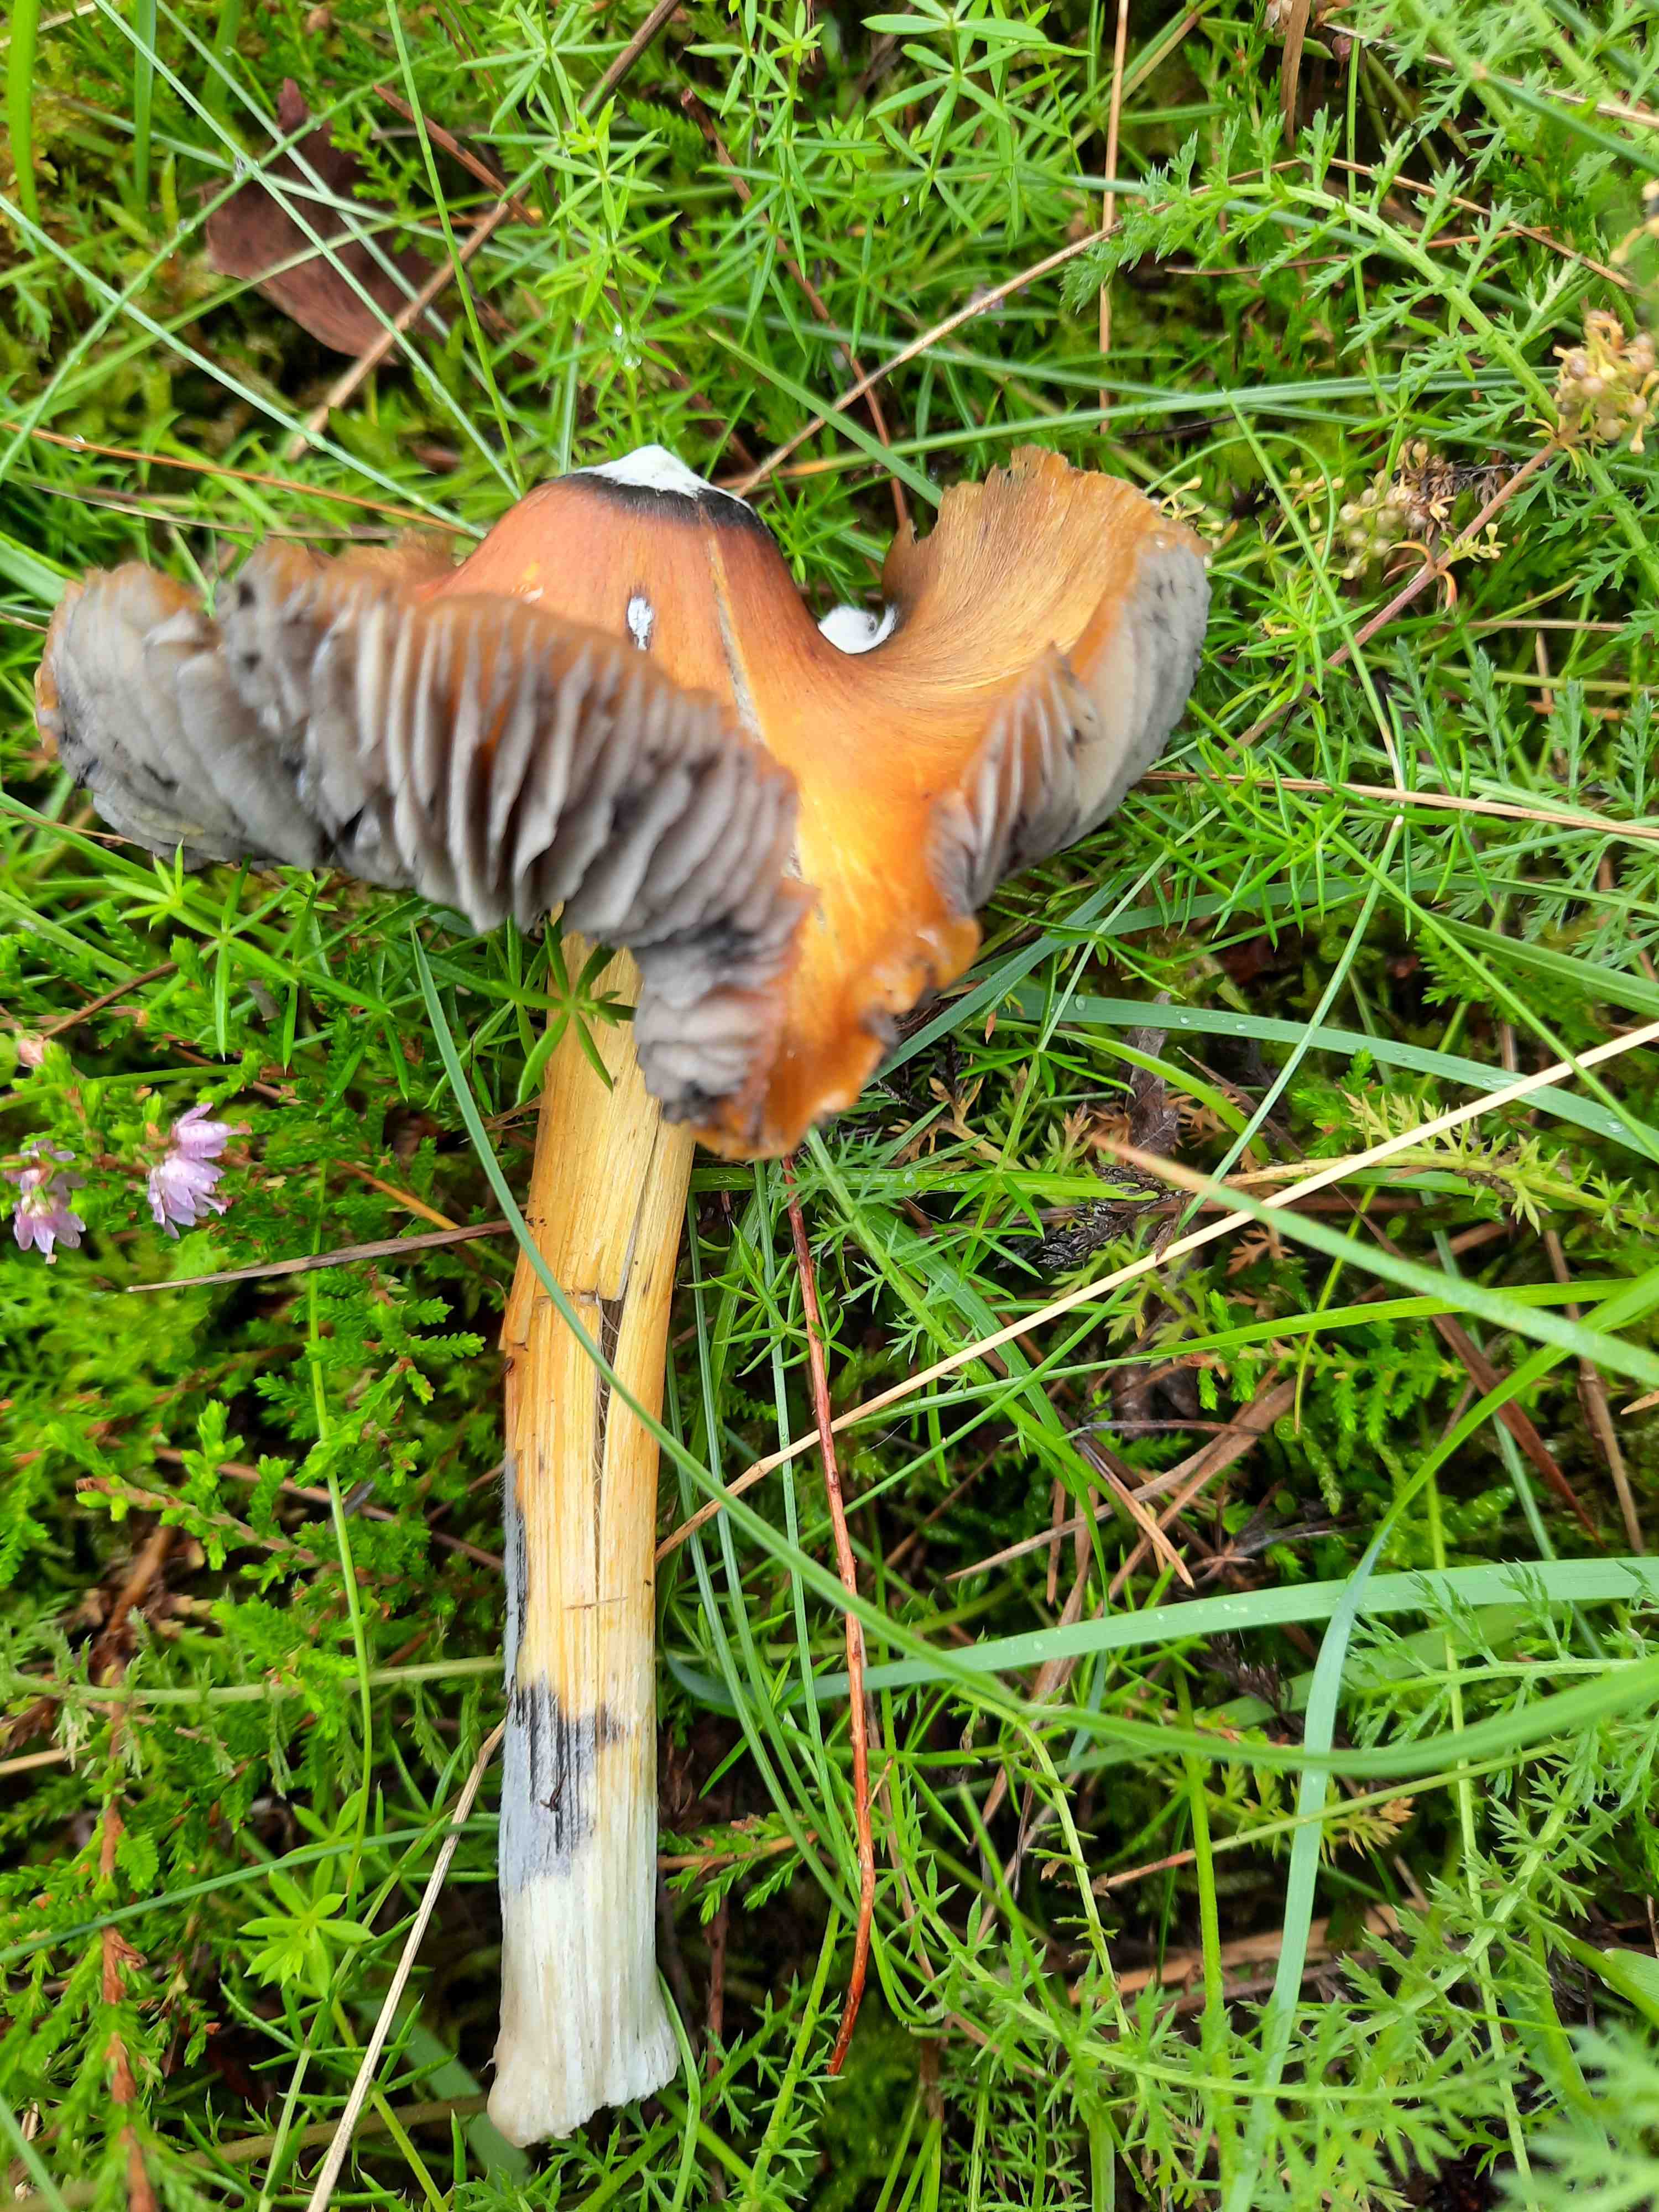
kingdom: Fungi
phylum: Basidiomycota
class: Agaricomycetes
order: Agaricales
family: Hygrophoraceae
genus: Hygrocybe
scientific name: Hygrocybe conica
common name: kegle-vokshat
